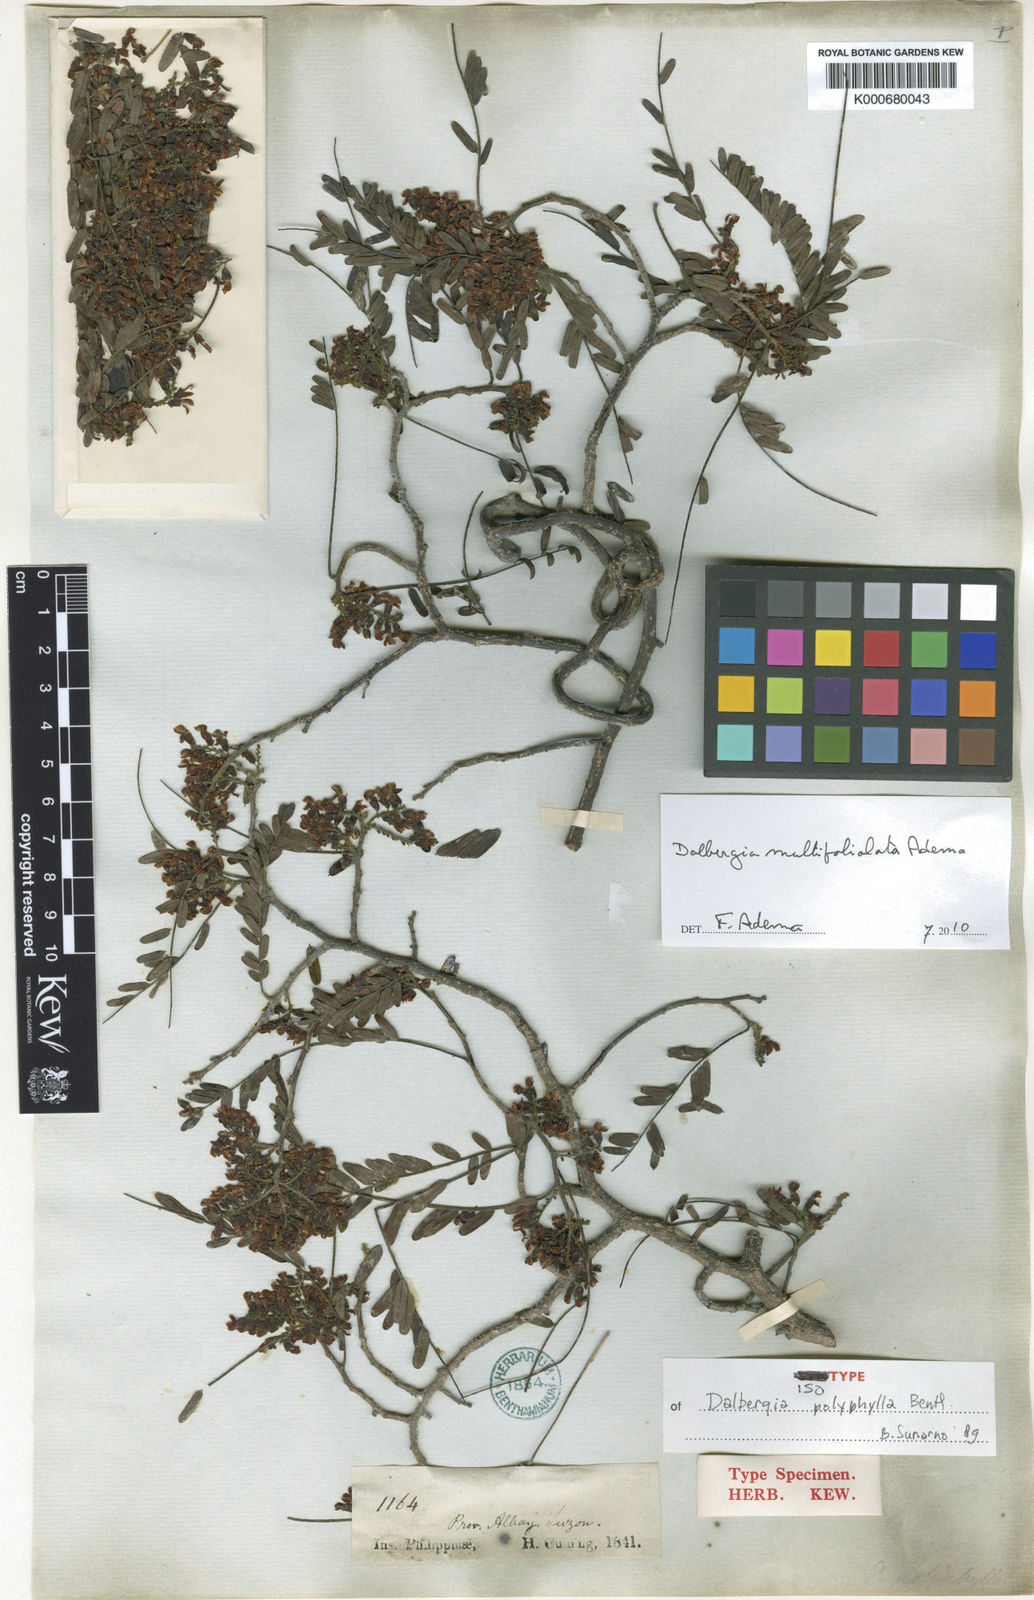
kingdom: Plantae
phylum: Tracheophyta
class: Magnoliopsida
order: Fabales
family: Fabaceae
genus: Dalbergia
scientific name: Dalbergia polyphylla
